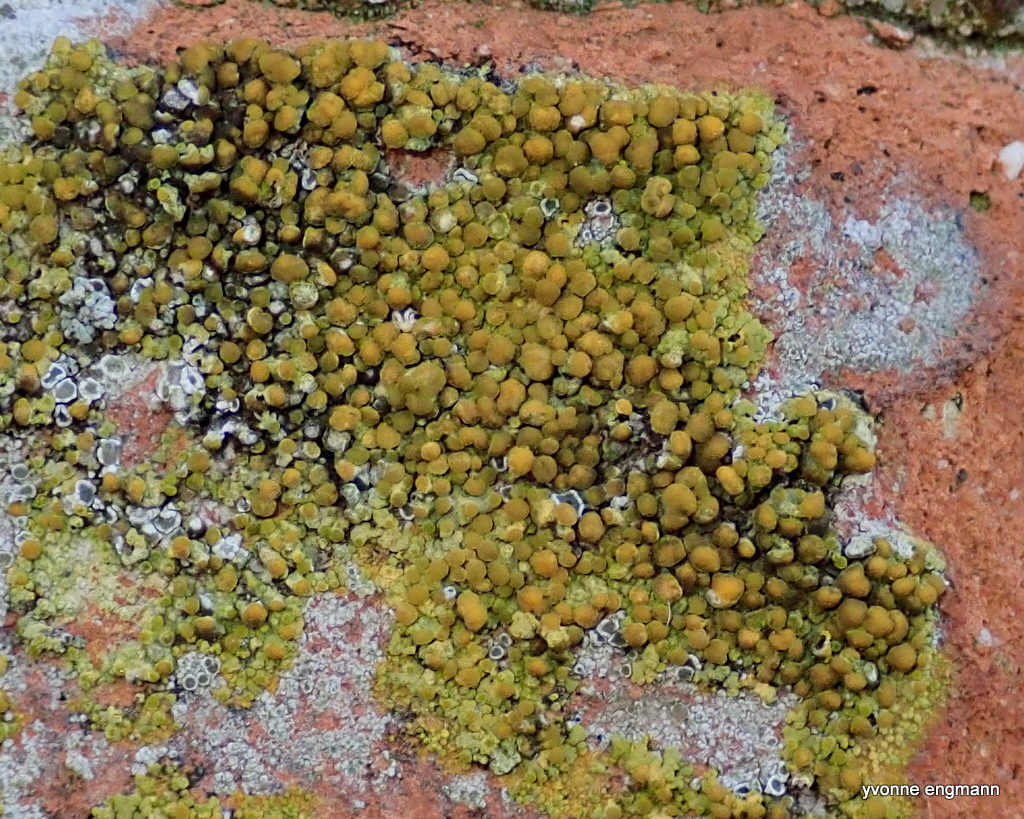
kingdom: Fungi
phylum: Ascomycota
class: Lecanoromycetes
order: Teloschistales
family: Teloschistaceae
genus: Calogaya
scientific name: Calogaya
